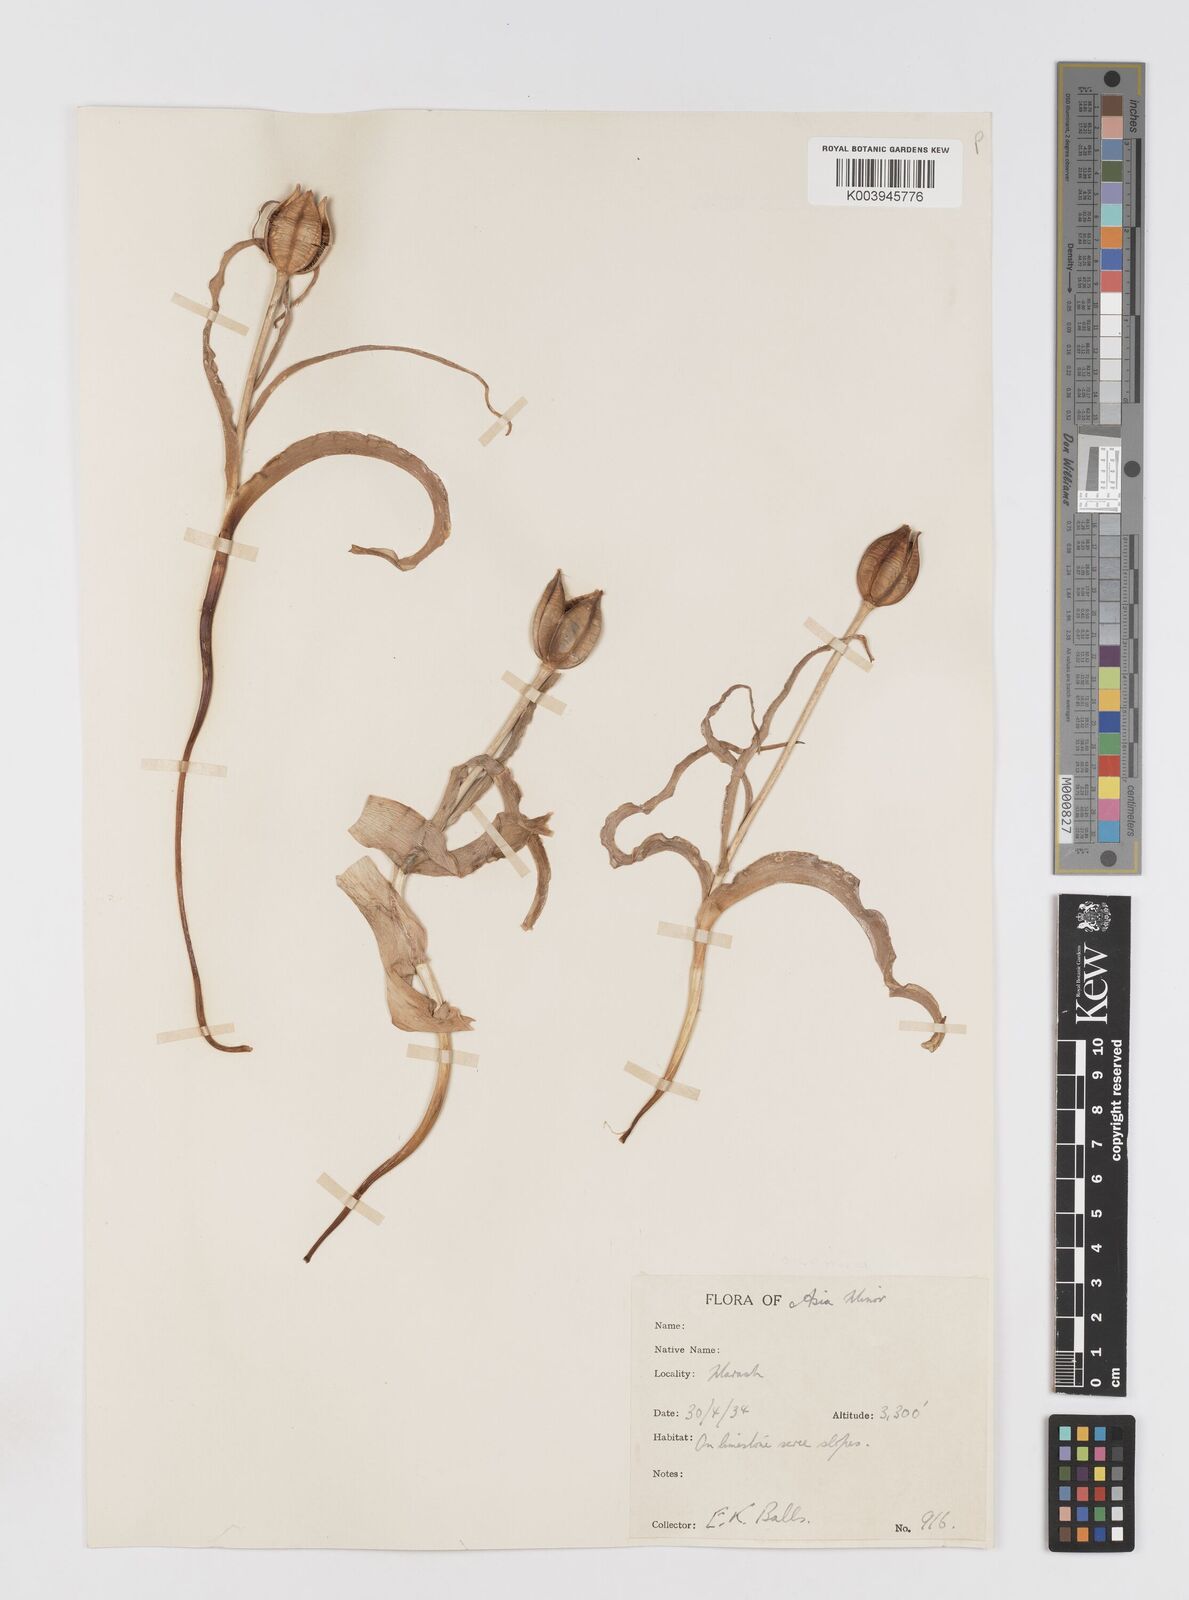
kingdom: Plantae
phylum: Tracheophyta
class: Liliopsida
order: Liliales
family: Liliaceae
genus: Tulipa
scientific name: Tulipa foliosa
